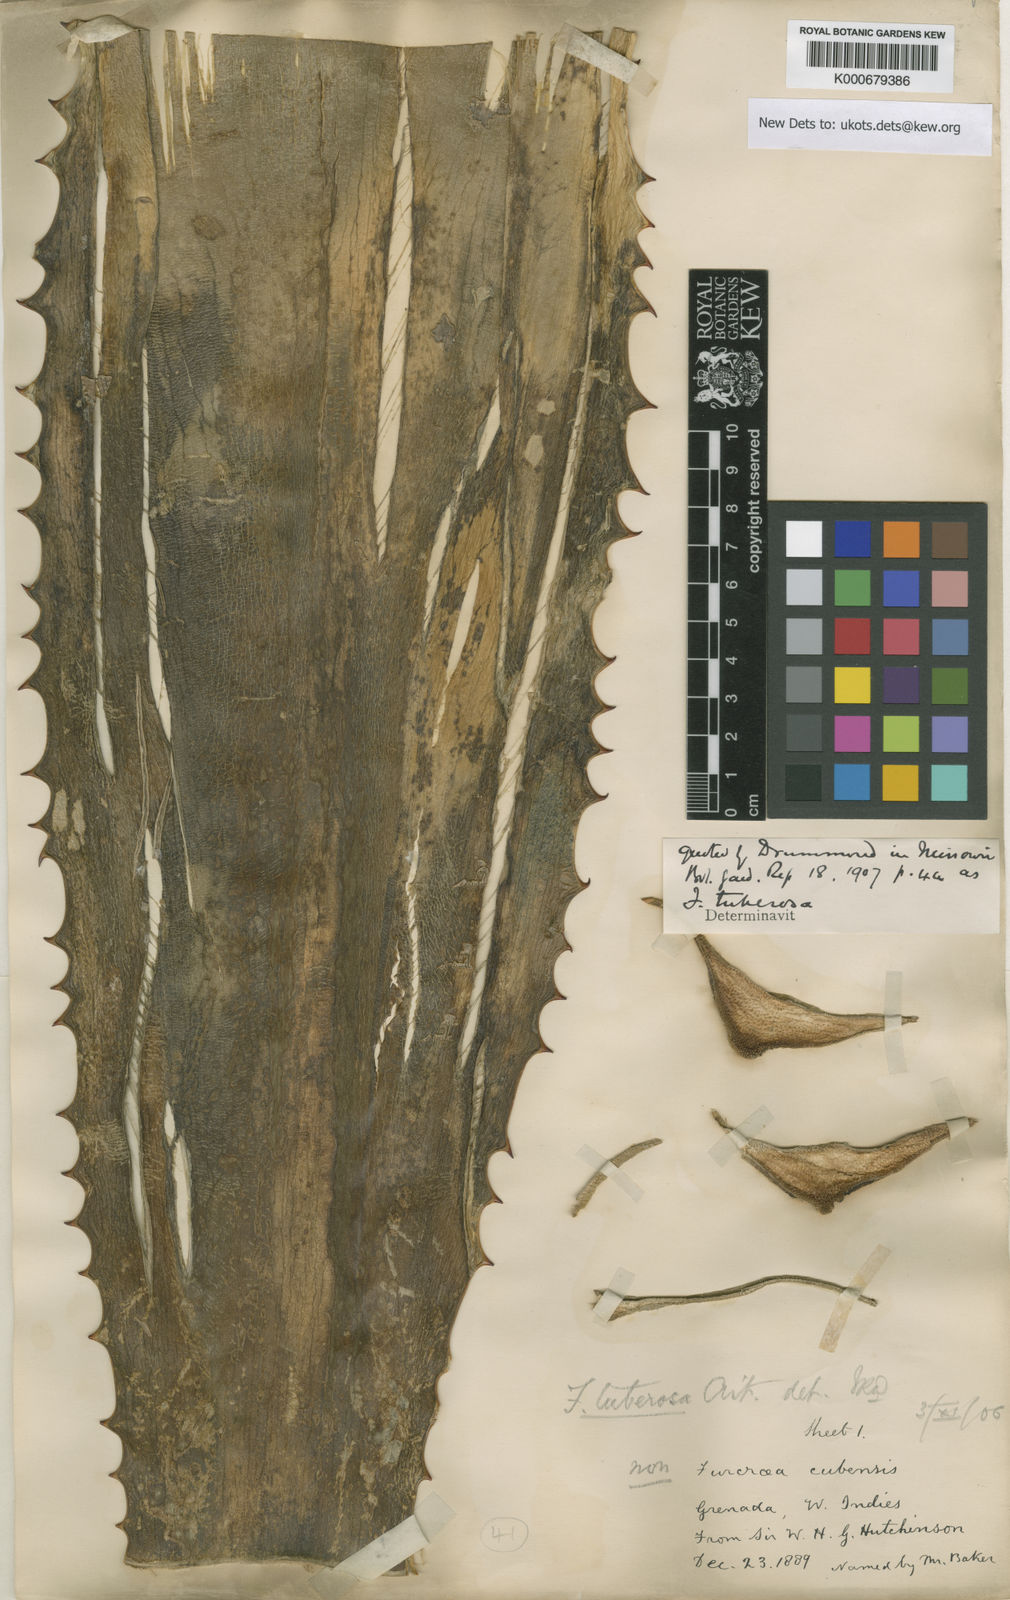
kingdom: Plantae
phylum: Tracheophyta
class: Liliopsida
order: Asparagales
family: Asparagaceae
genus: Furcraea
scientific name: Furcraea tuberosa
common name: Karata
